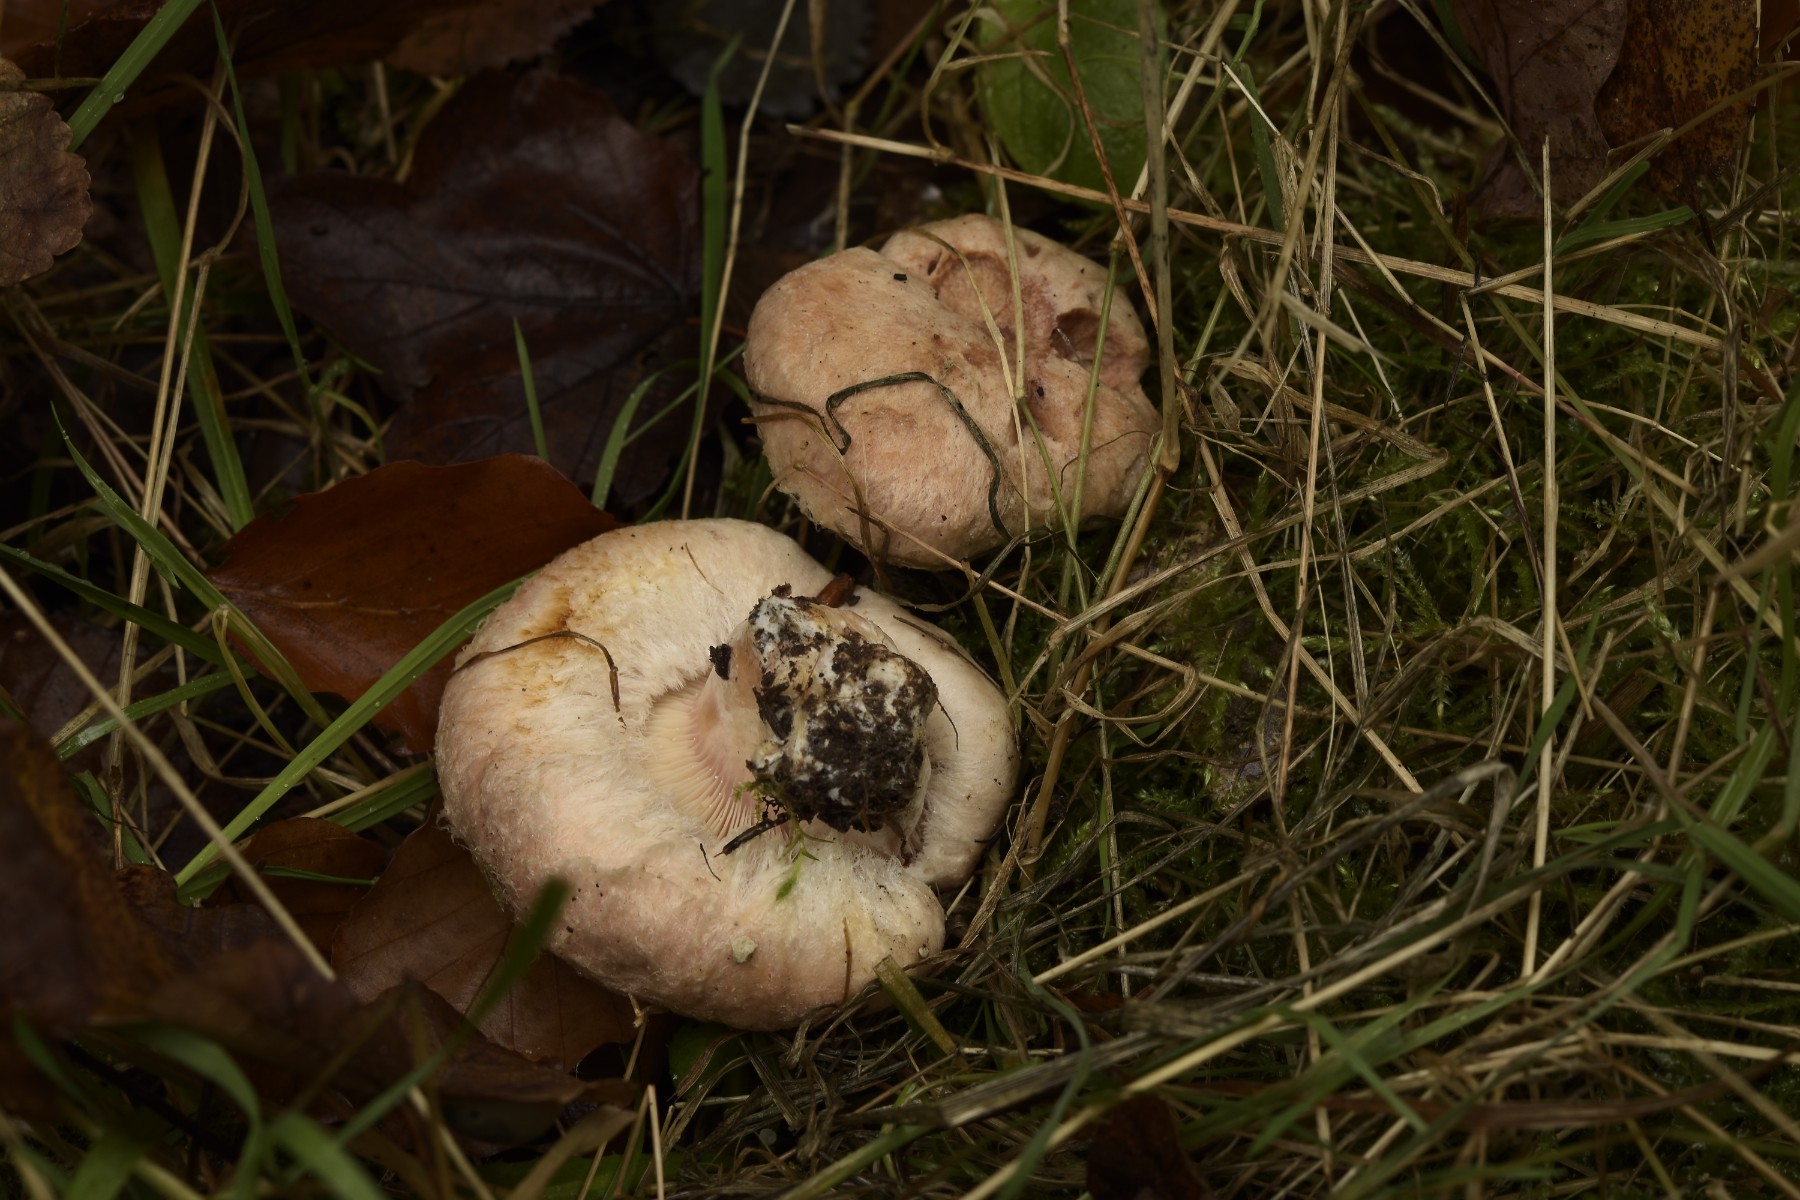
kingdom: Fungi
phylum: Basidiomycota
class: Agaricomycetes
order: Russulales
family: Russulaceae
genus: Lactarius
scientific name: Lactarius pubescens
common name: dunet mælkehat
